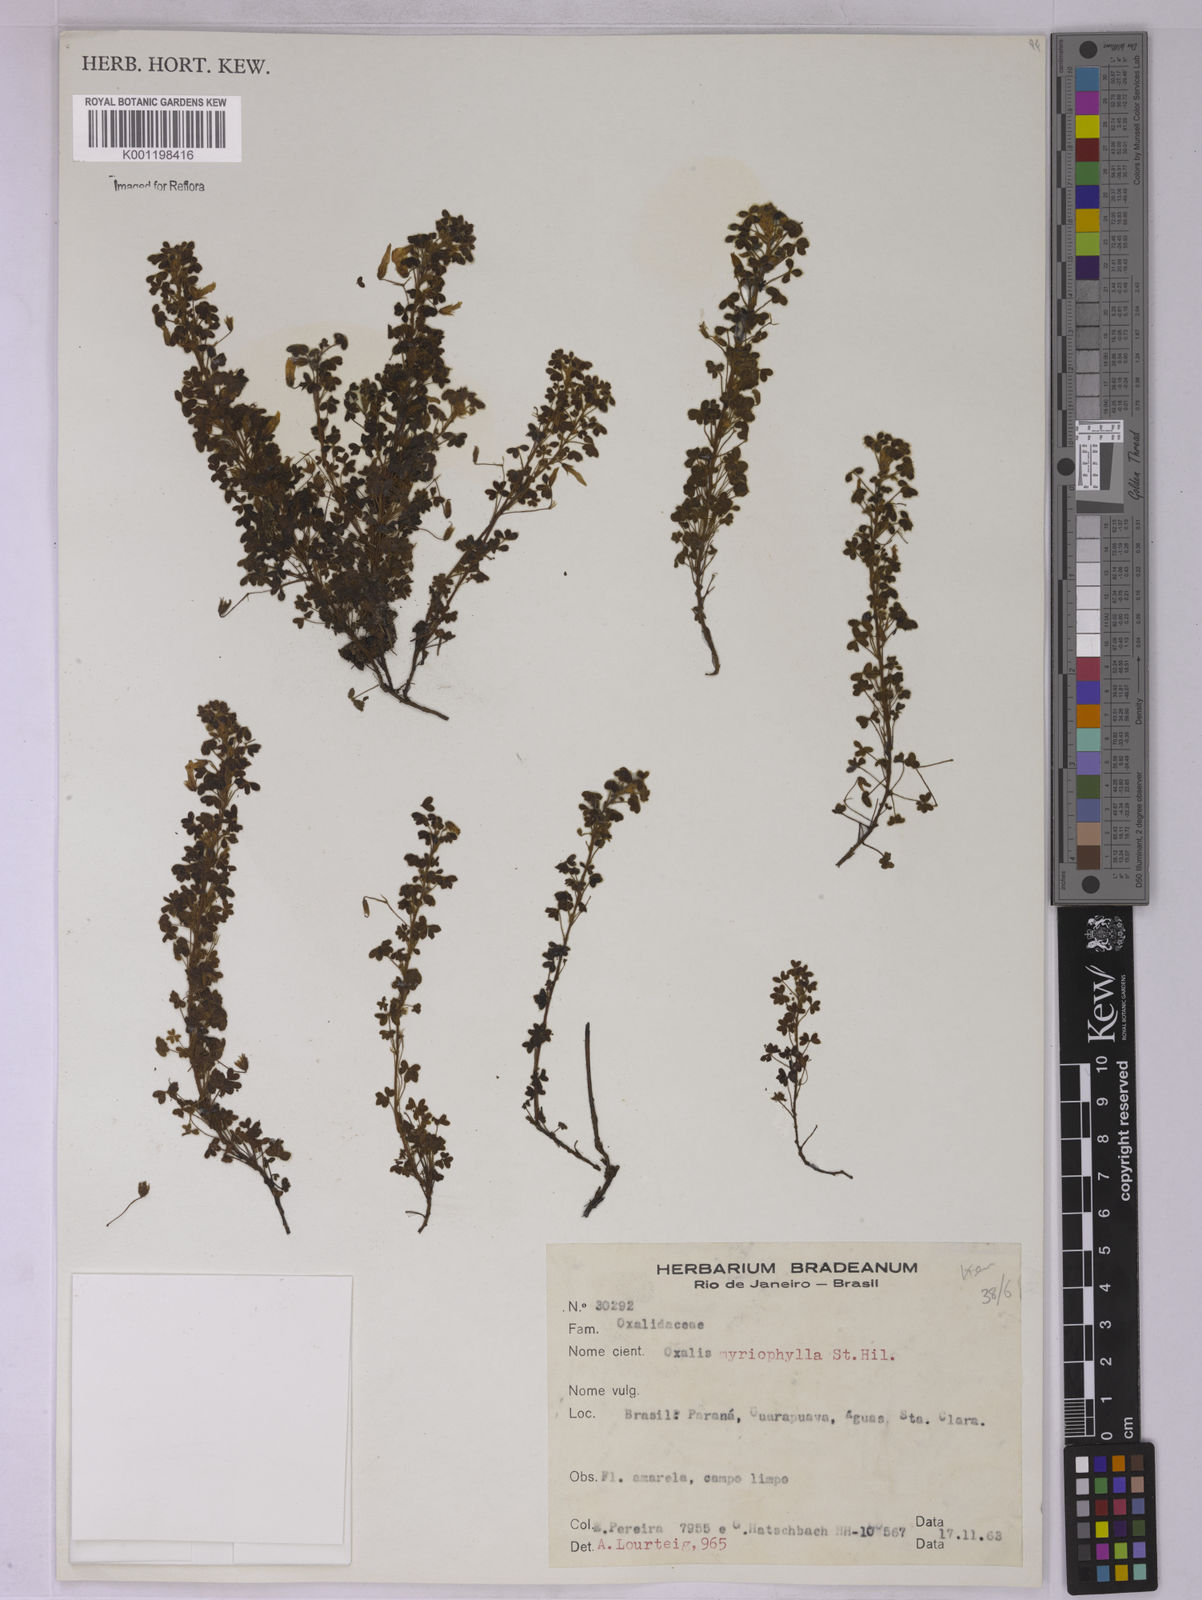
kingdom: Plantae
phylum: Tracheophyta
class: Magnoliopsida
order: Oxalidales
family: Oxalidaceae
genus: Oxalis
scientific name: Oxalis myriophylla
